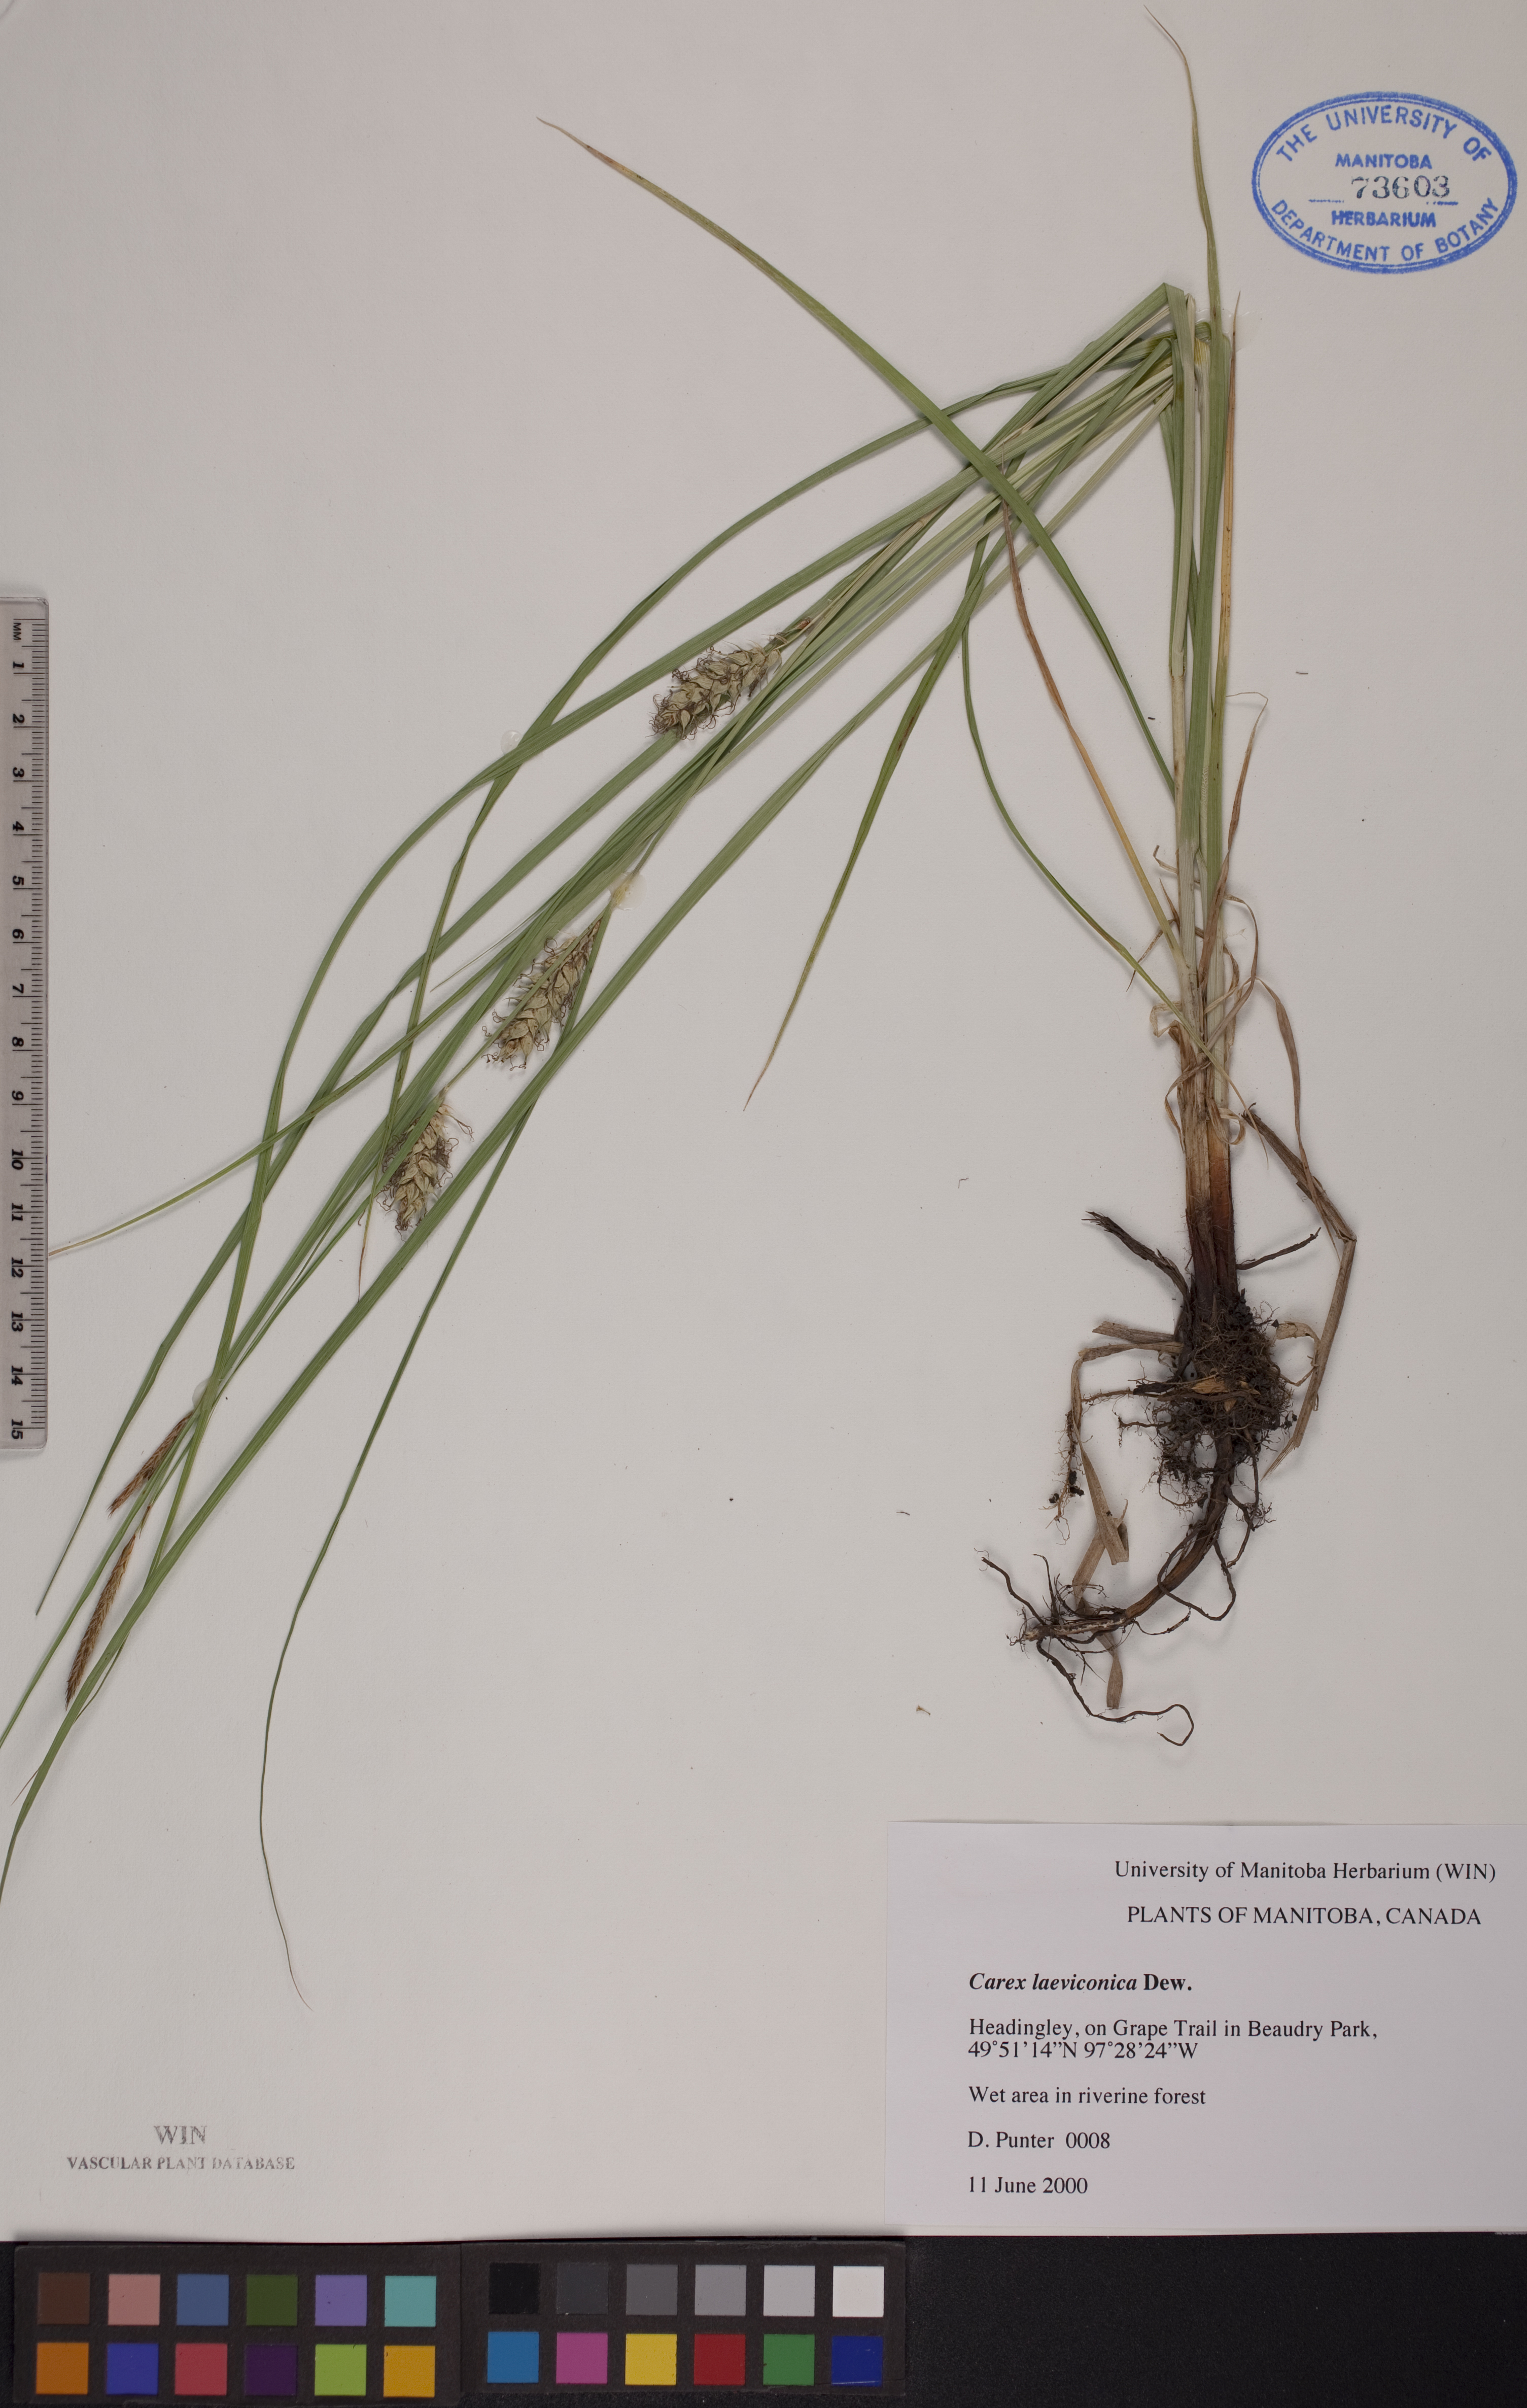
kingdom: Plantae
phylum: Tracheophyta
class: Liliopsida
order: Poales
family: Cyperaceae
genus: Carex
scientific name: Carex laeviconica
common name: Plains slough sedge
